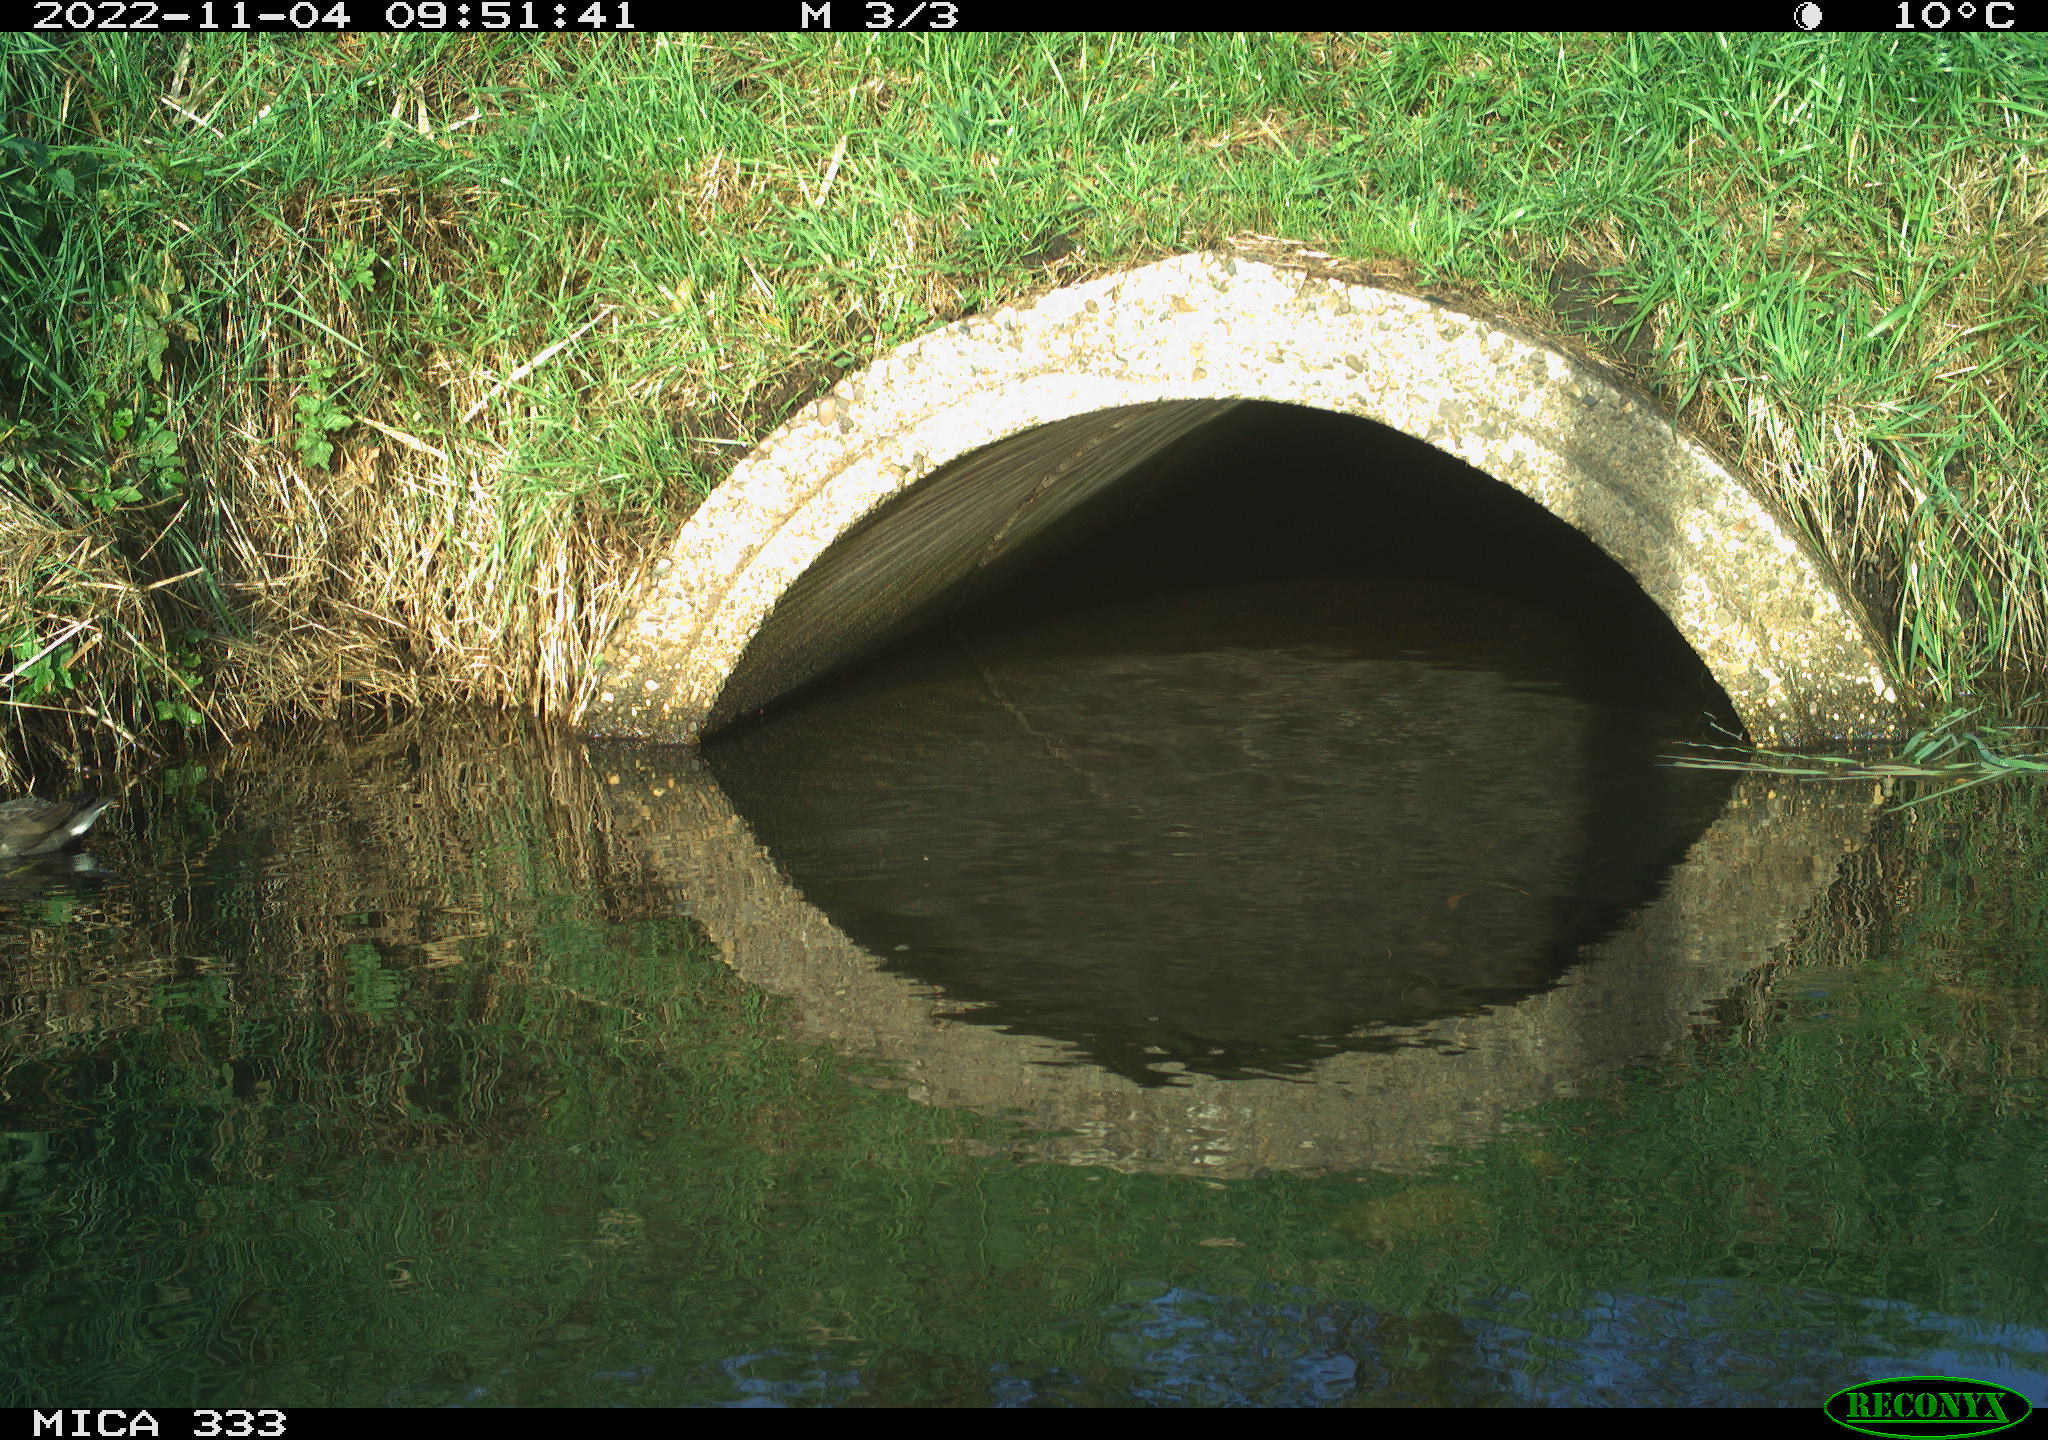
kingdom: Animalia
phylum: Chordata
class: Aves
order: Gruiformes
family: Rallidae
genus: Gallinula
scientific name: Gallinula chloropus
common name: Common moorhen
